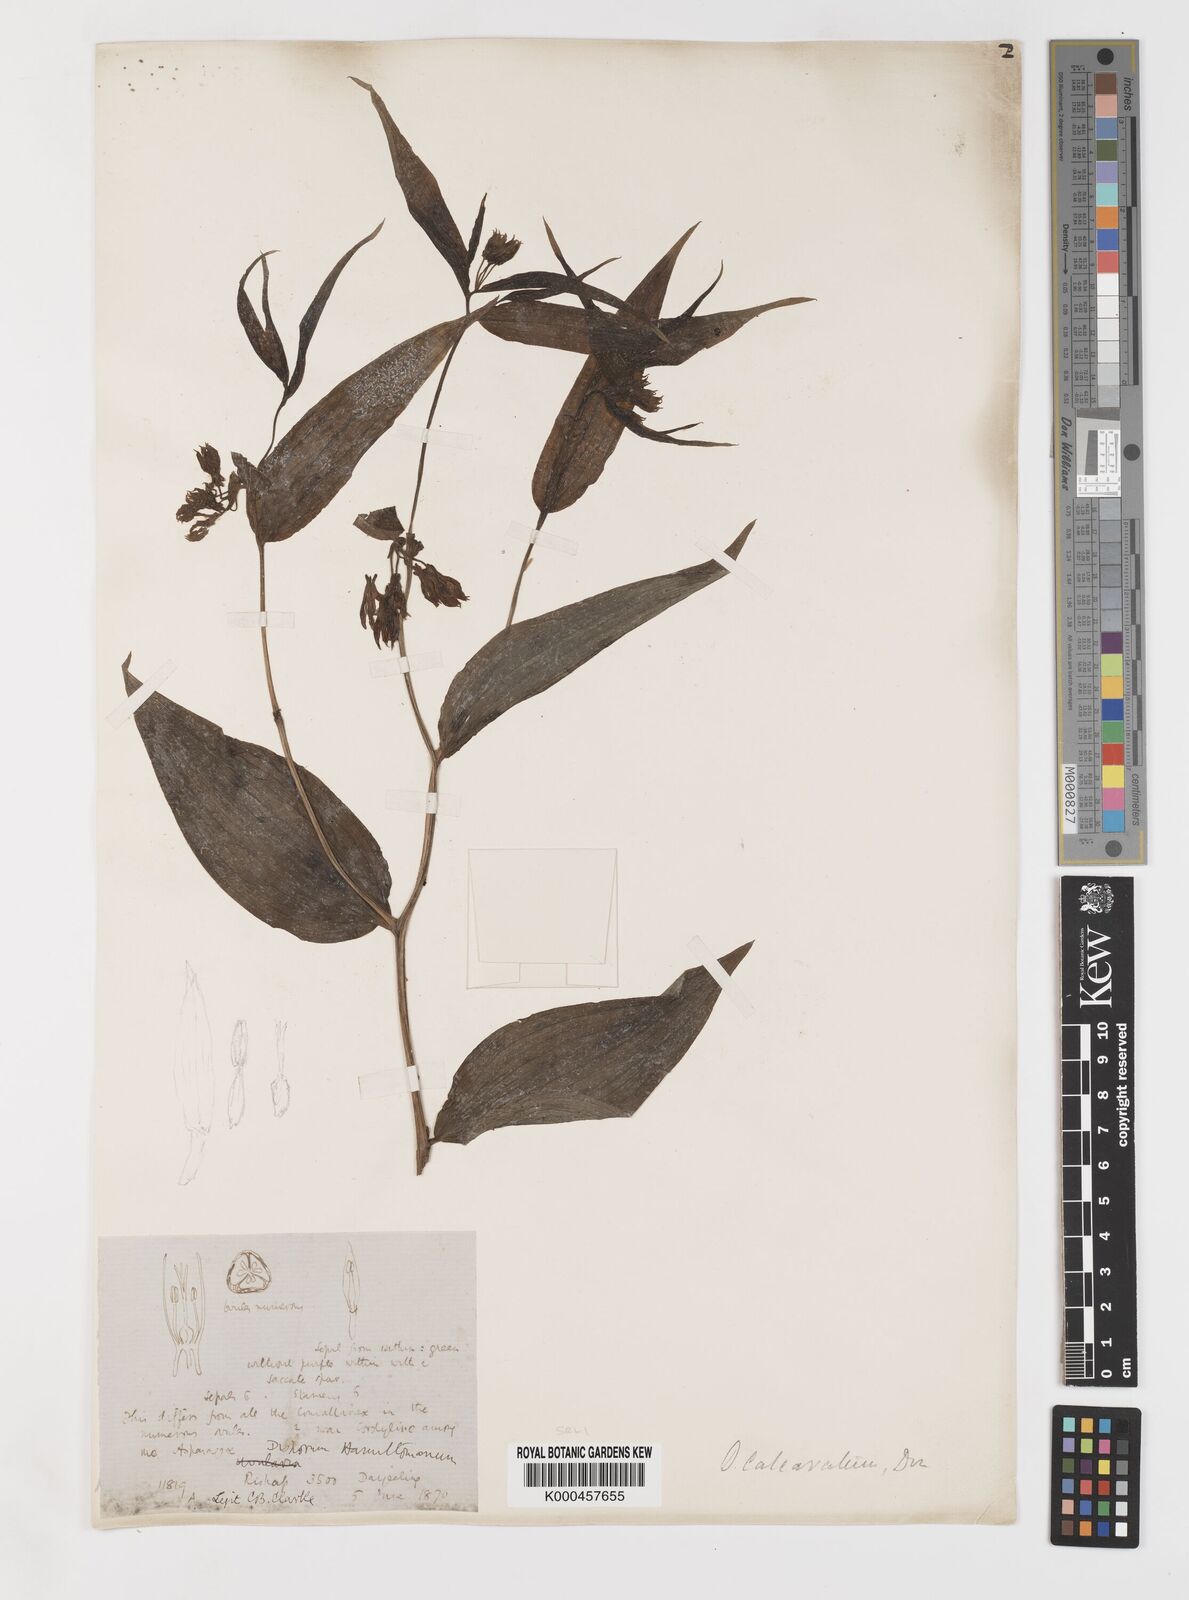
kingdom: Plantae
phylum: Tracheophyta
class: Liliopsida
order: Liliales
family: Colchicaceae
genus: Disporum
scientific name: Disporum calcaratum
